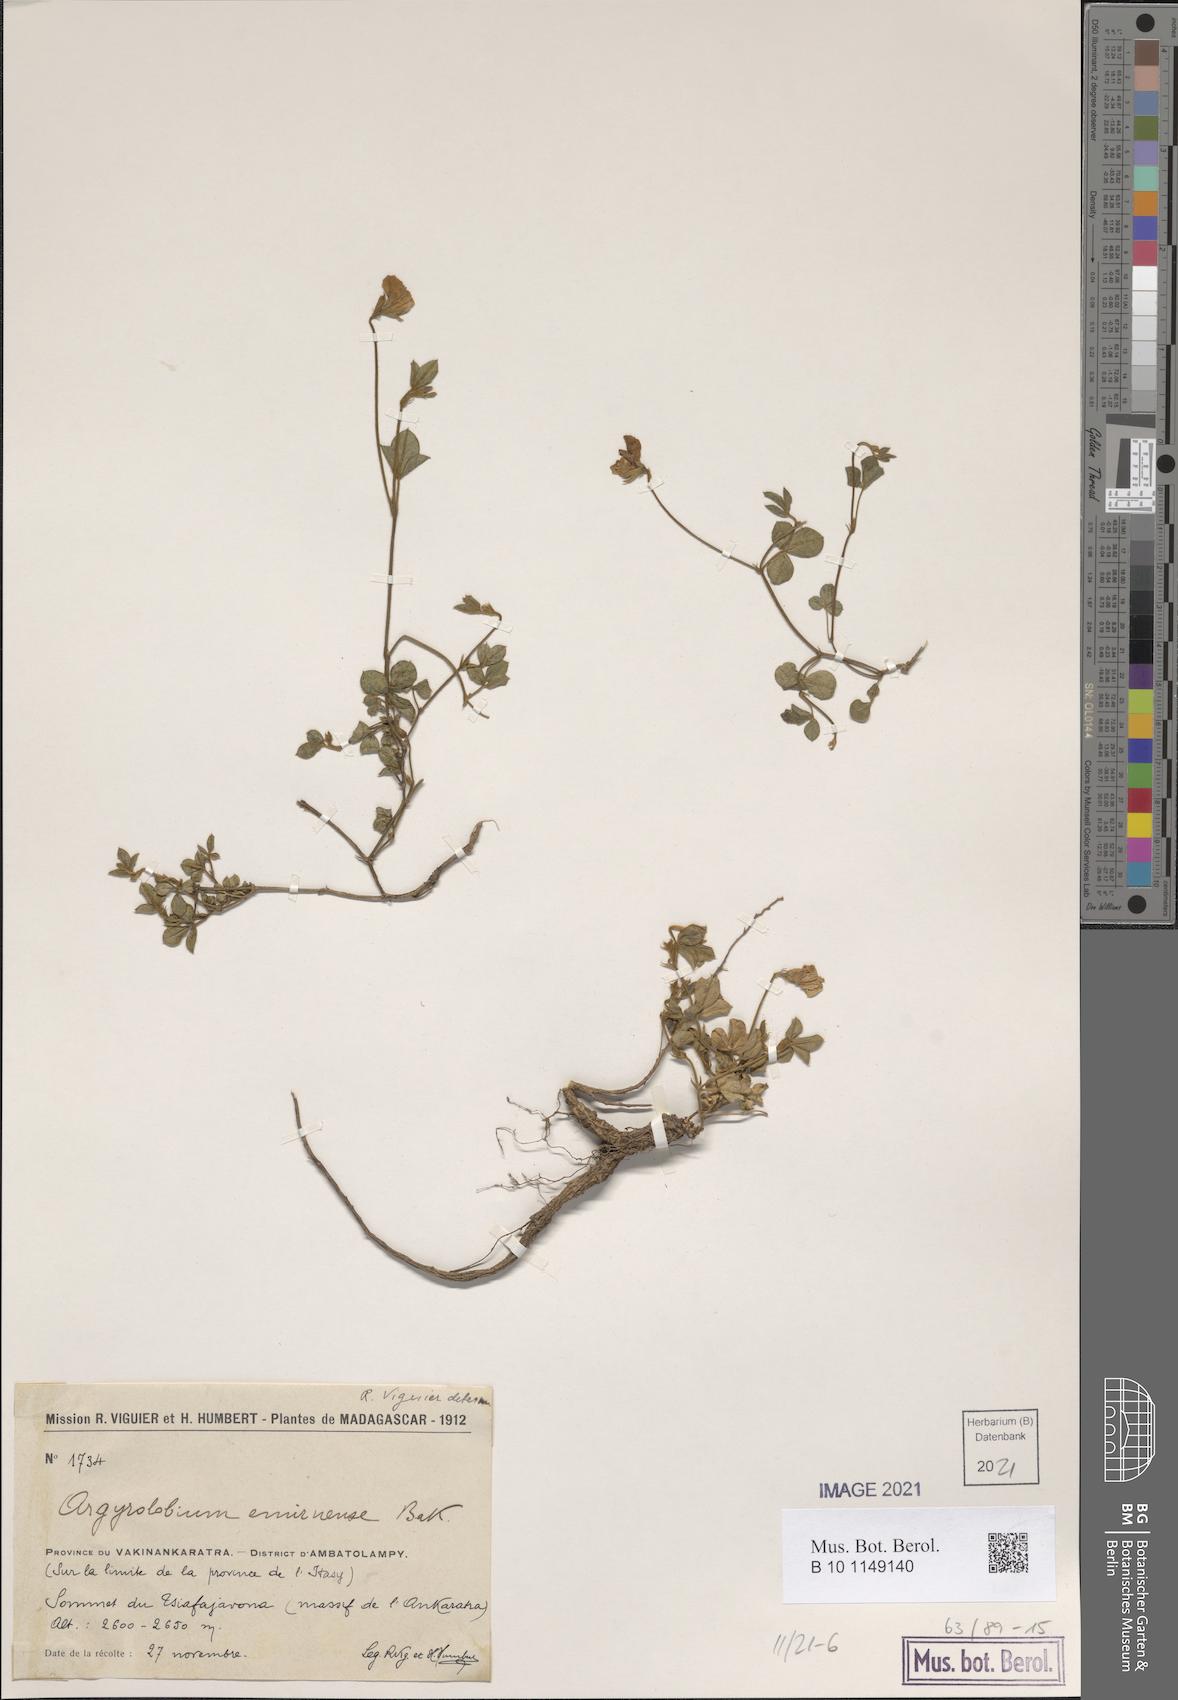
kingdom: Plantae
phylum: Tracheophyta
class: Magnoliopsida
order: Fabales
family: Fabaceae
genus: Argyrolobium
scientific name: Argyrolobium pedunculare
